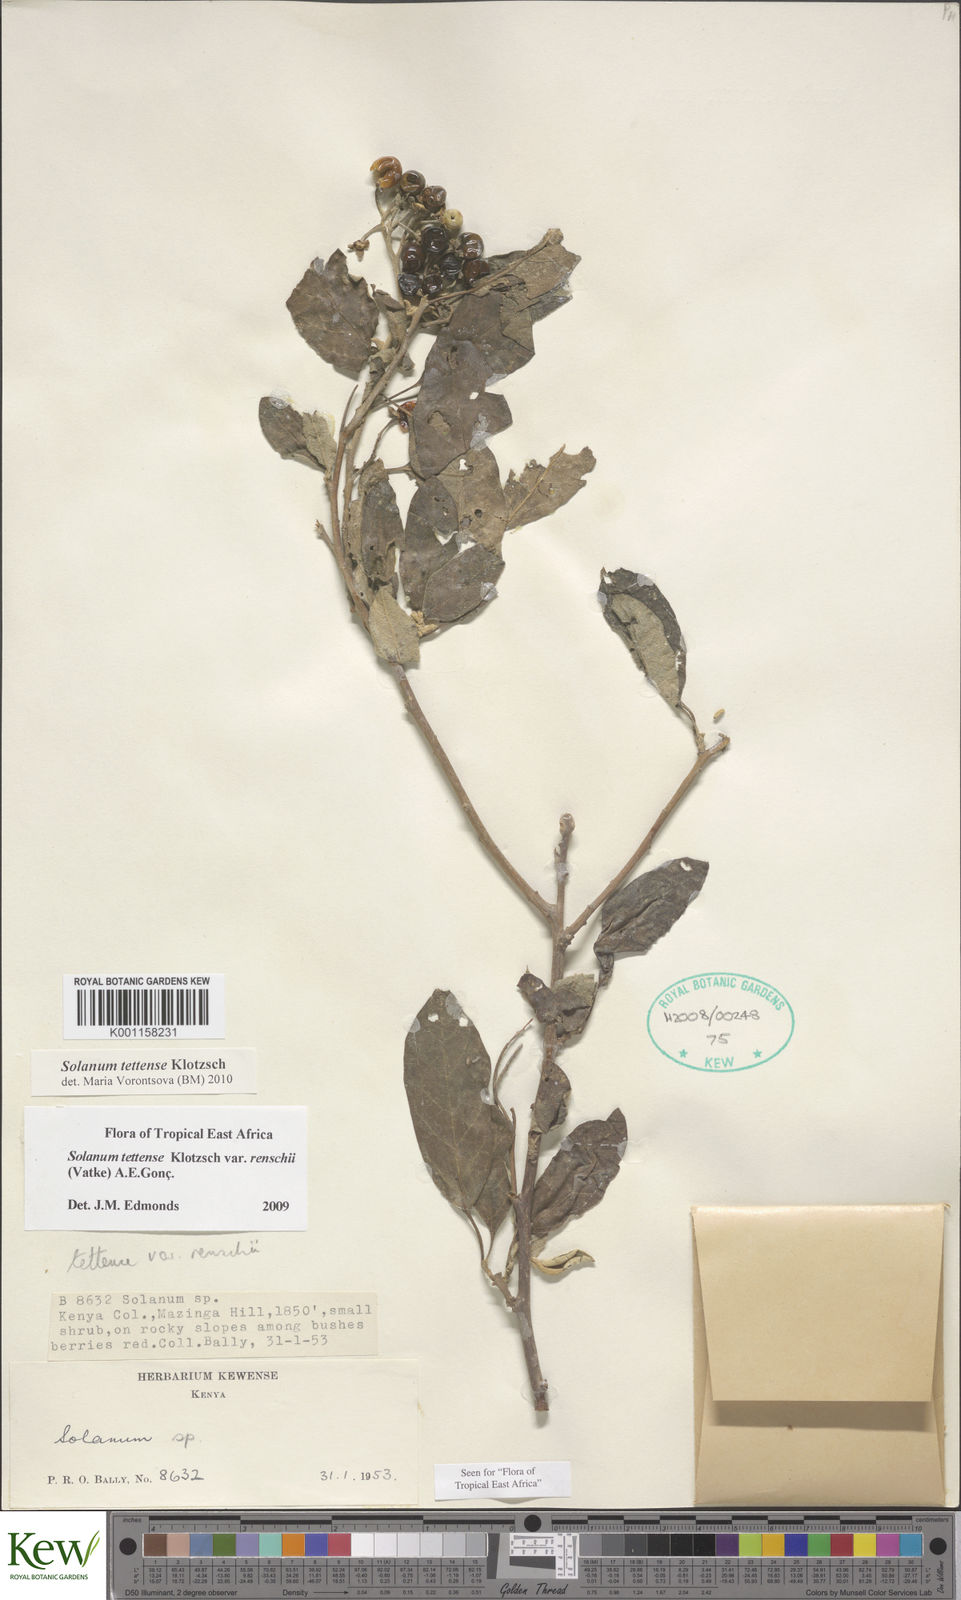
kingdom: Plantae
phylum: Tracheophyta
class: Magnoliopsida
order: Solanales
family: Solanaceae
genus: Solanum
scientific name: Solanum tettense
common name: Mozambique bitter apple
